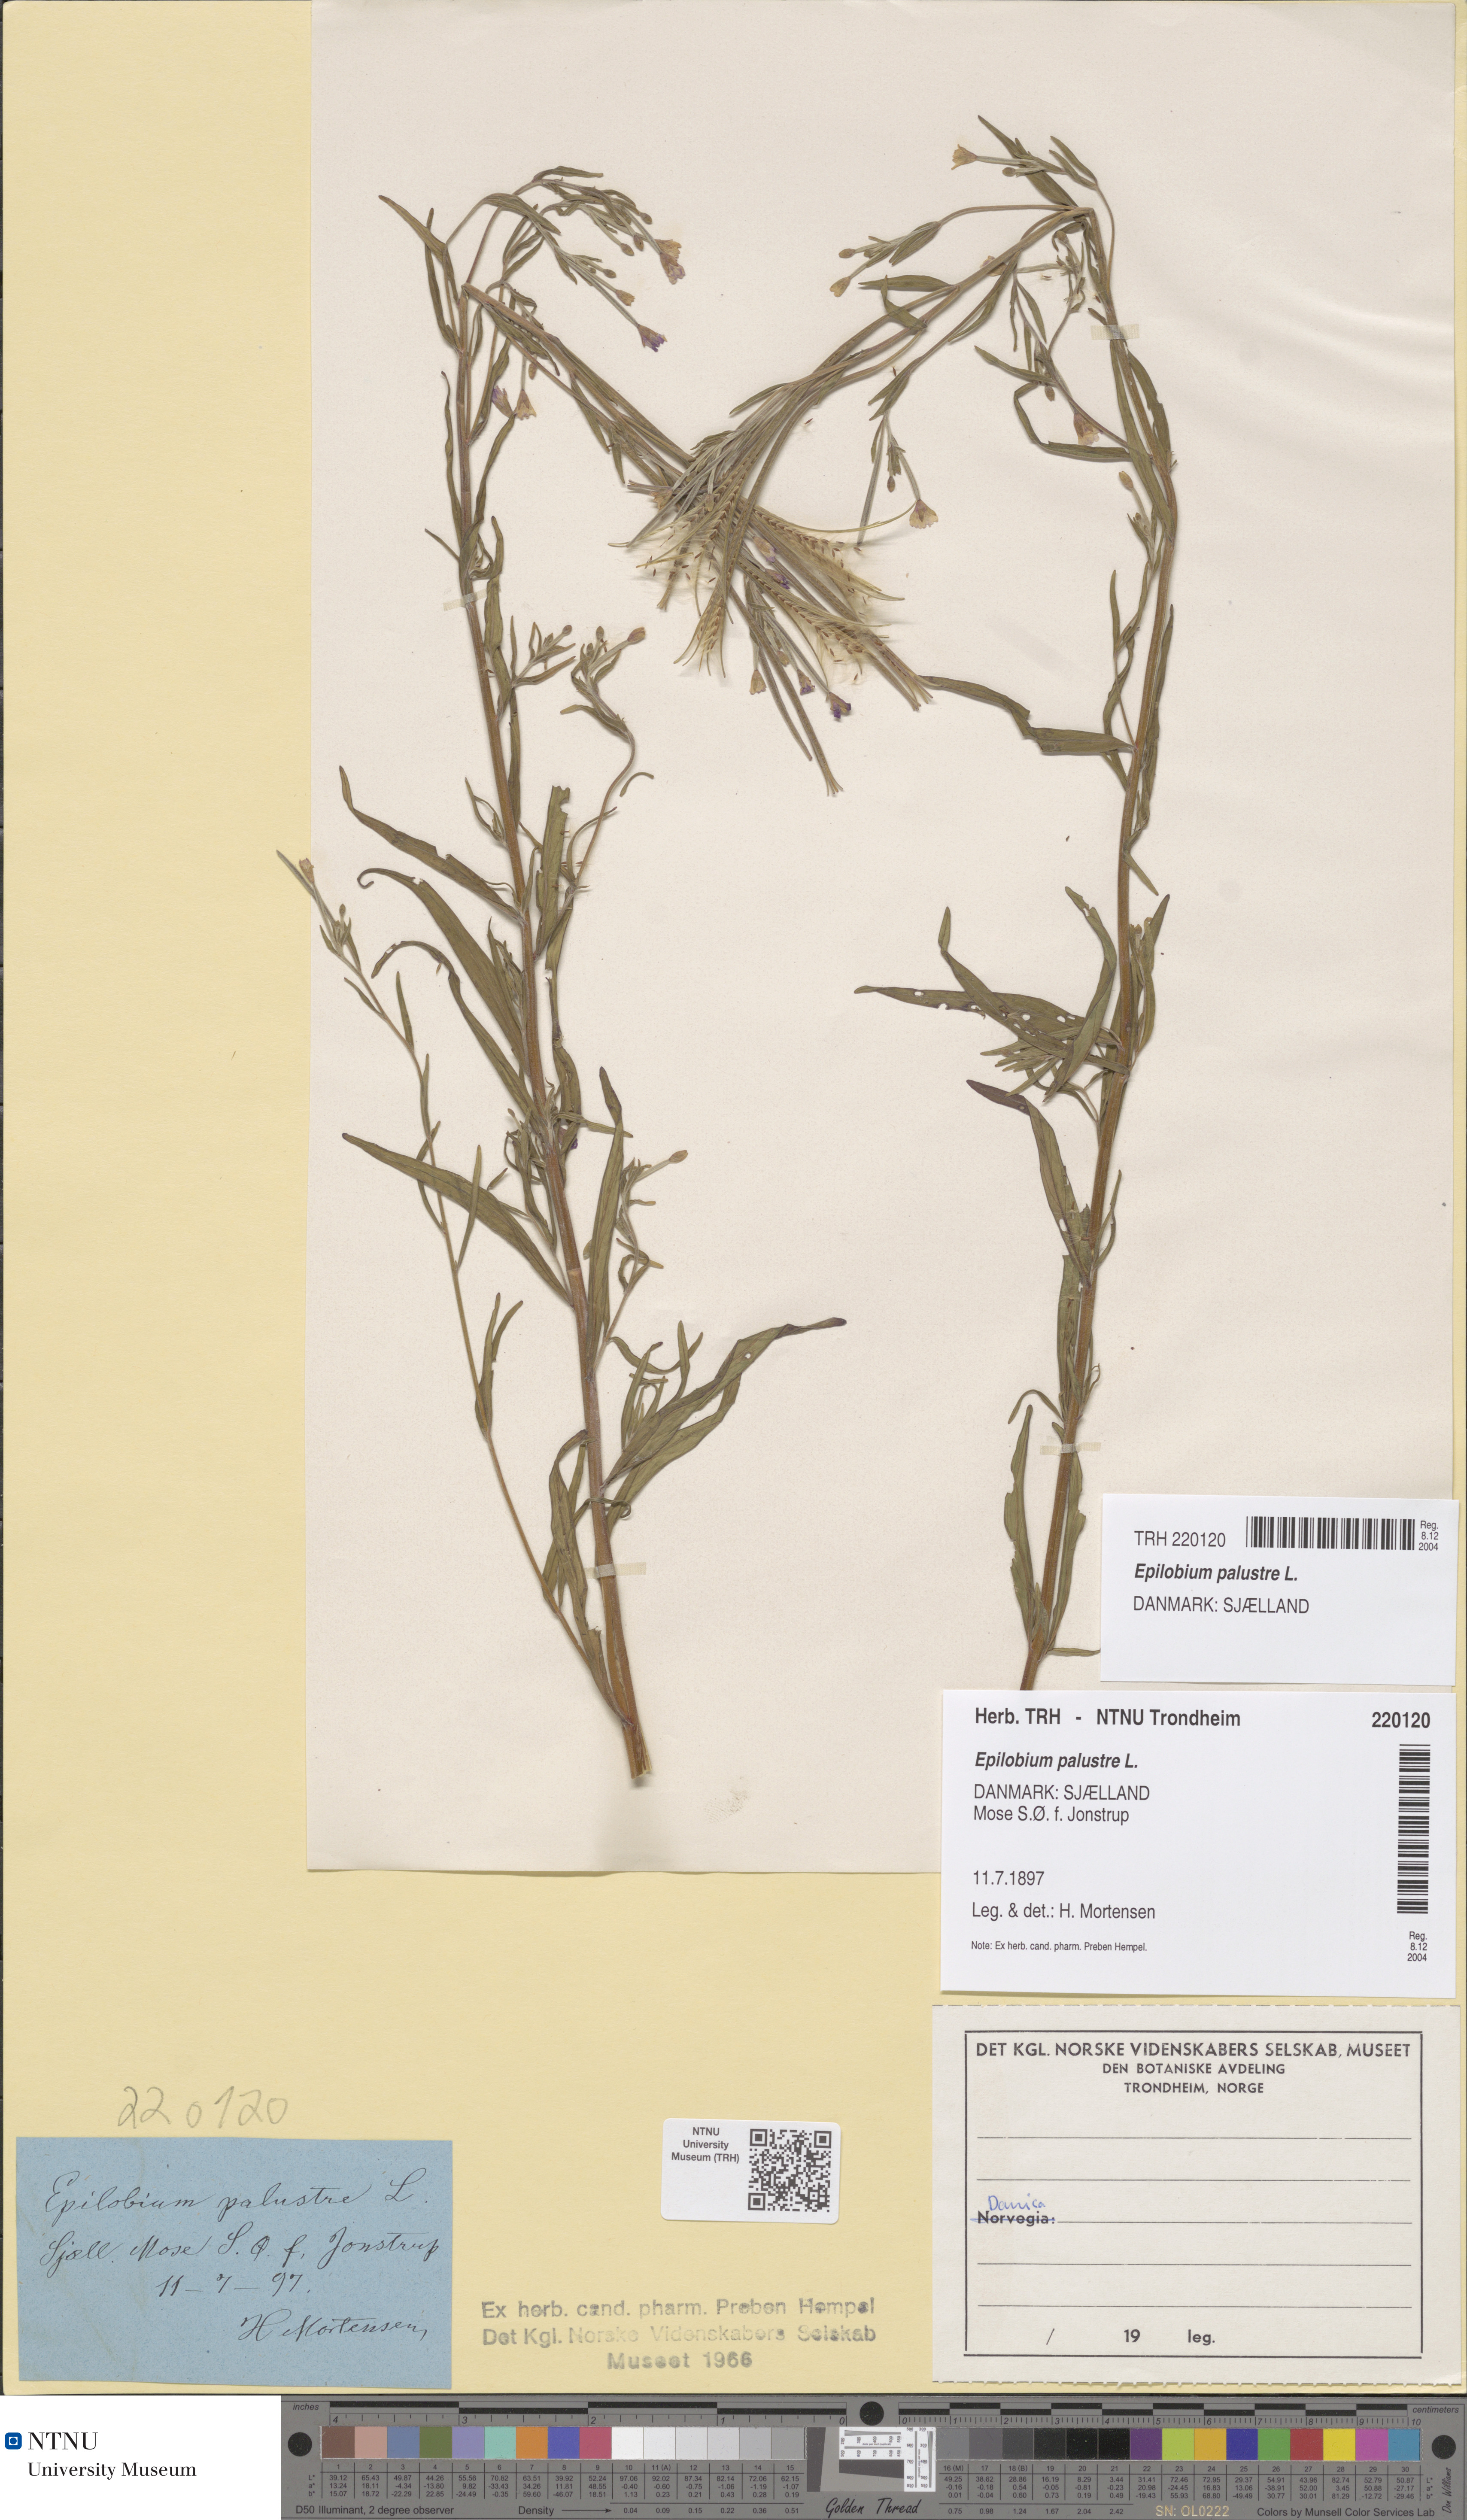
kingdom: Plantae
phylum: Tracheophyta
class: Magnoliopsida
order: Myrtales
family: Onagraceae
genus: Epilobium
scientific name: Epilobium palustre
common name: Marsh willowherb
